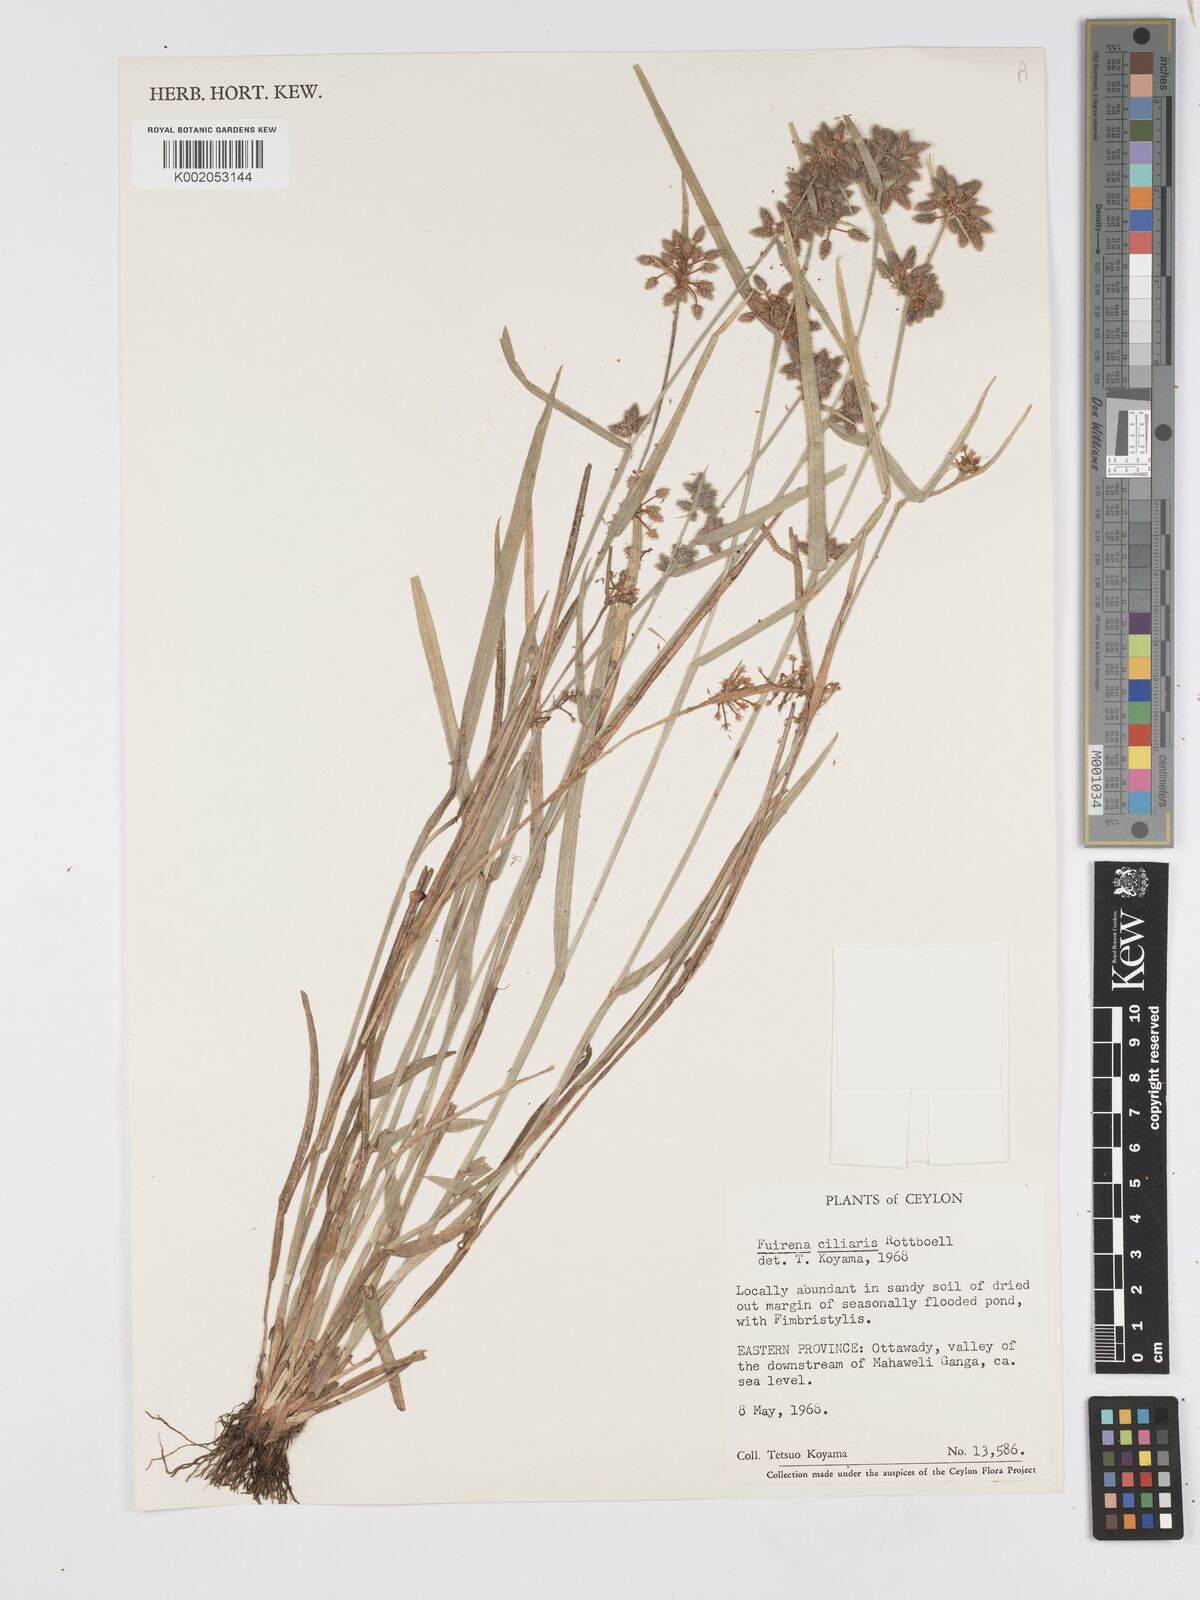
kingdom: Plantae
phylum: Tracheophyta
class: Liliopsida
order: Poales
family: Cyperaceae
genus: Fuirena
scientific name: Fuirena ciliaris
